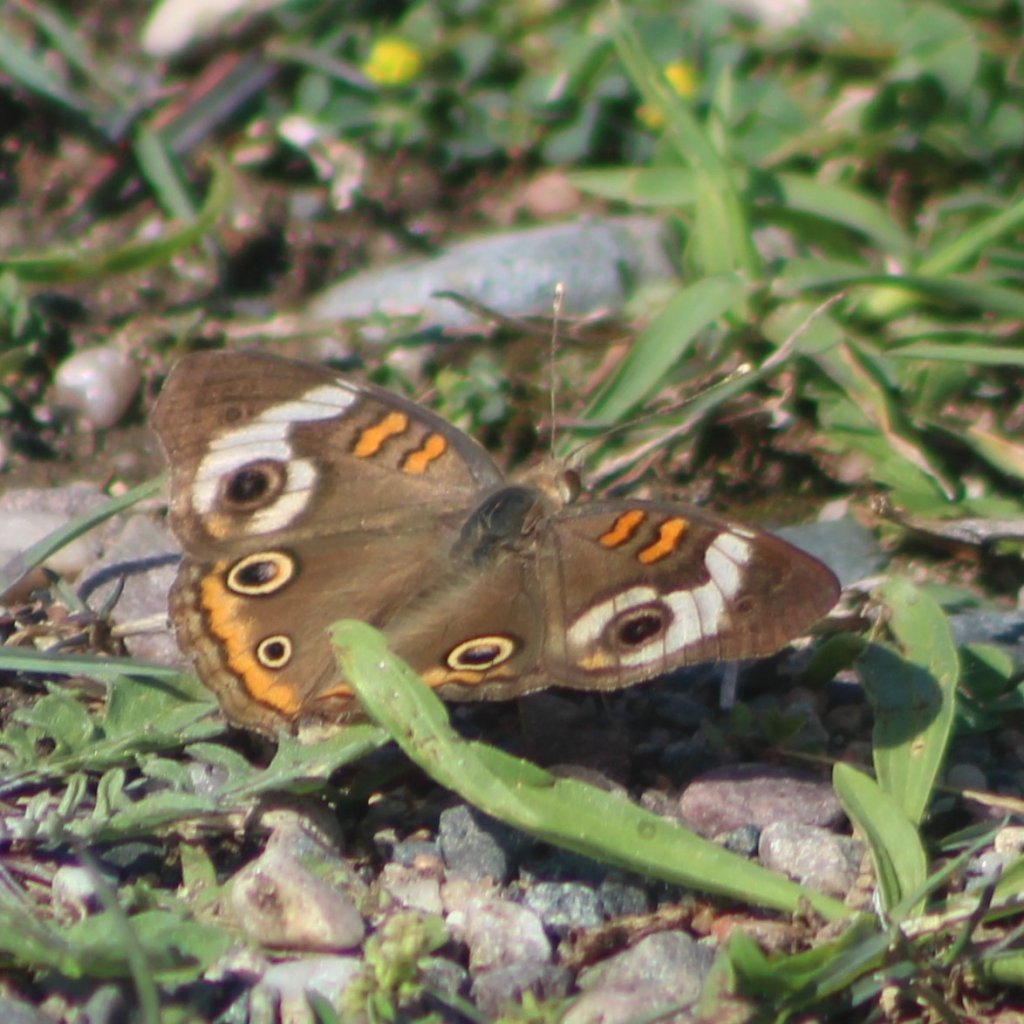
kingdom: Animalia
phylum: Arthropoda
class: Insecta
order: Lepidoptera
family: Nymphalidae
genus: Junonia
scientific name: Junonia coenia
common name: Common Buckeye
